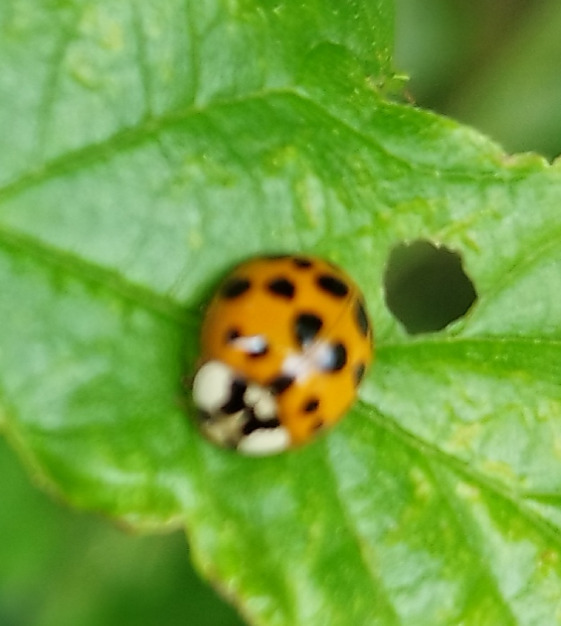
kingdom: Animalia
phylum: Arthropoda
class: Insecta
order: Coleoptera
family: Coccinellidae
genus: Harmonia
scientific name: Harmonia axyridis
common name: Harlekinmariehøne
